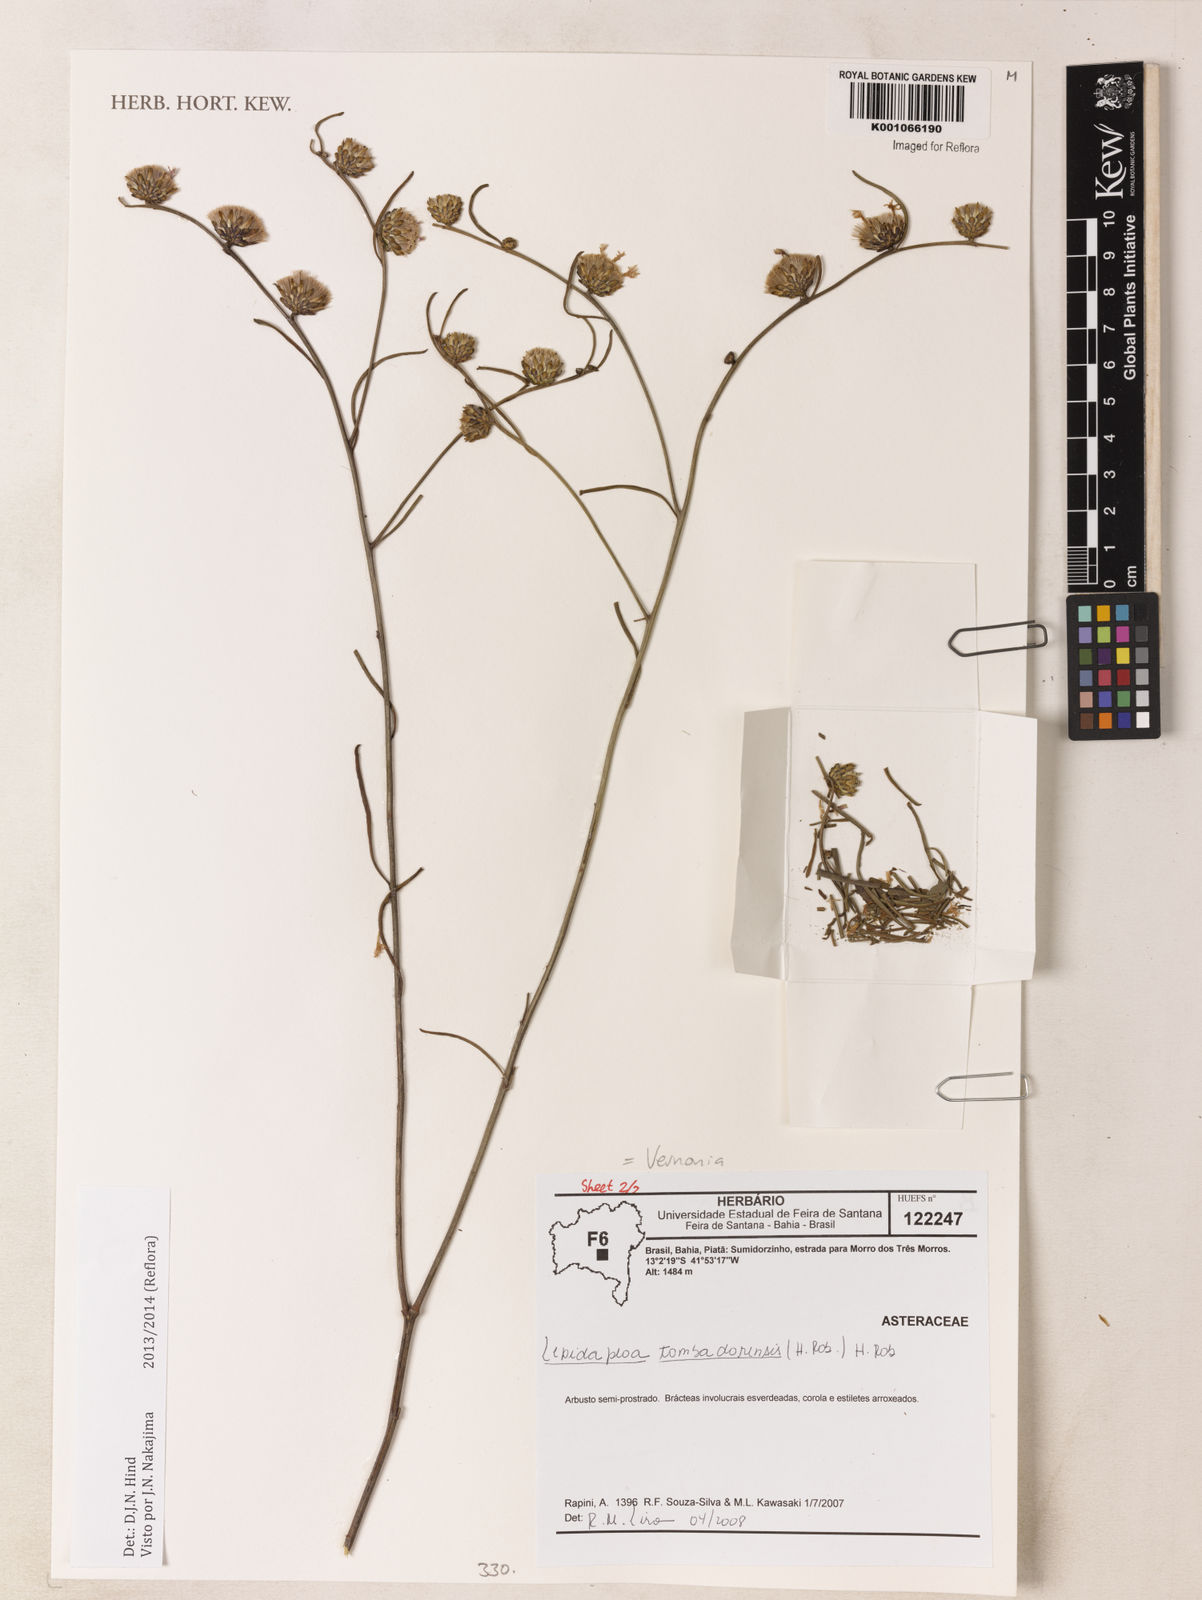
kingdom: Plantae
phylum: Tracheophyta
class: Magnoliopsida
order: Asterales
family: Asteraceae
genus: Lepidaploa
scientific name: Lepidaploa tombadorensis
